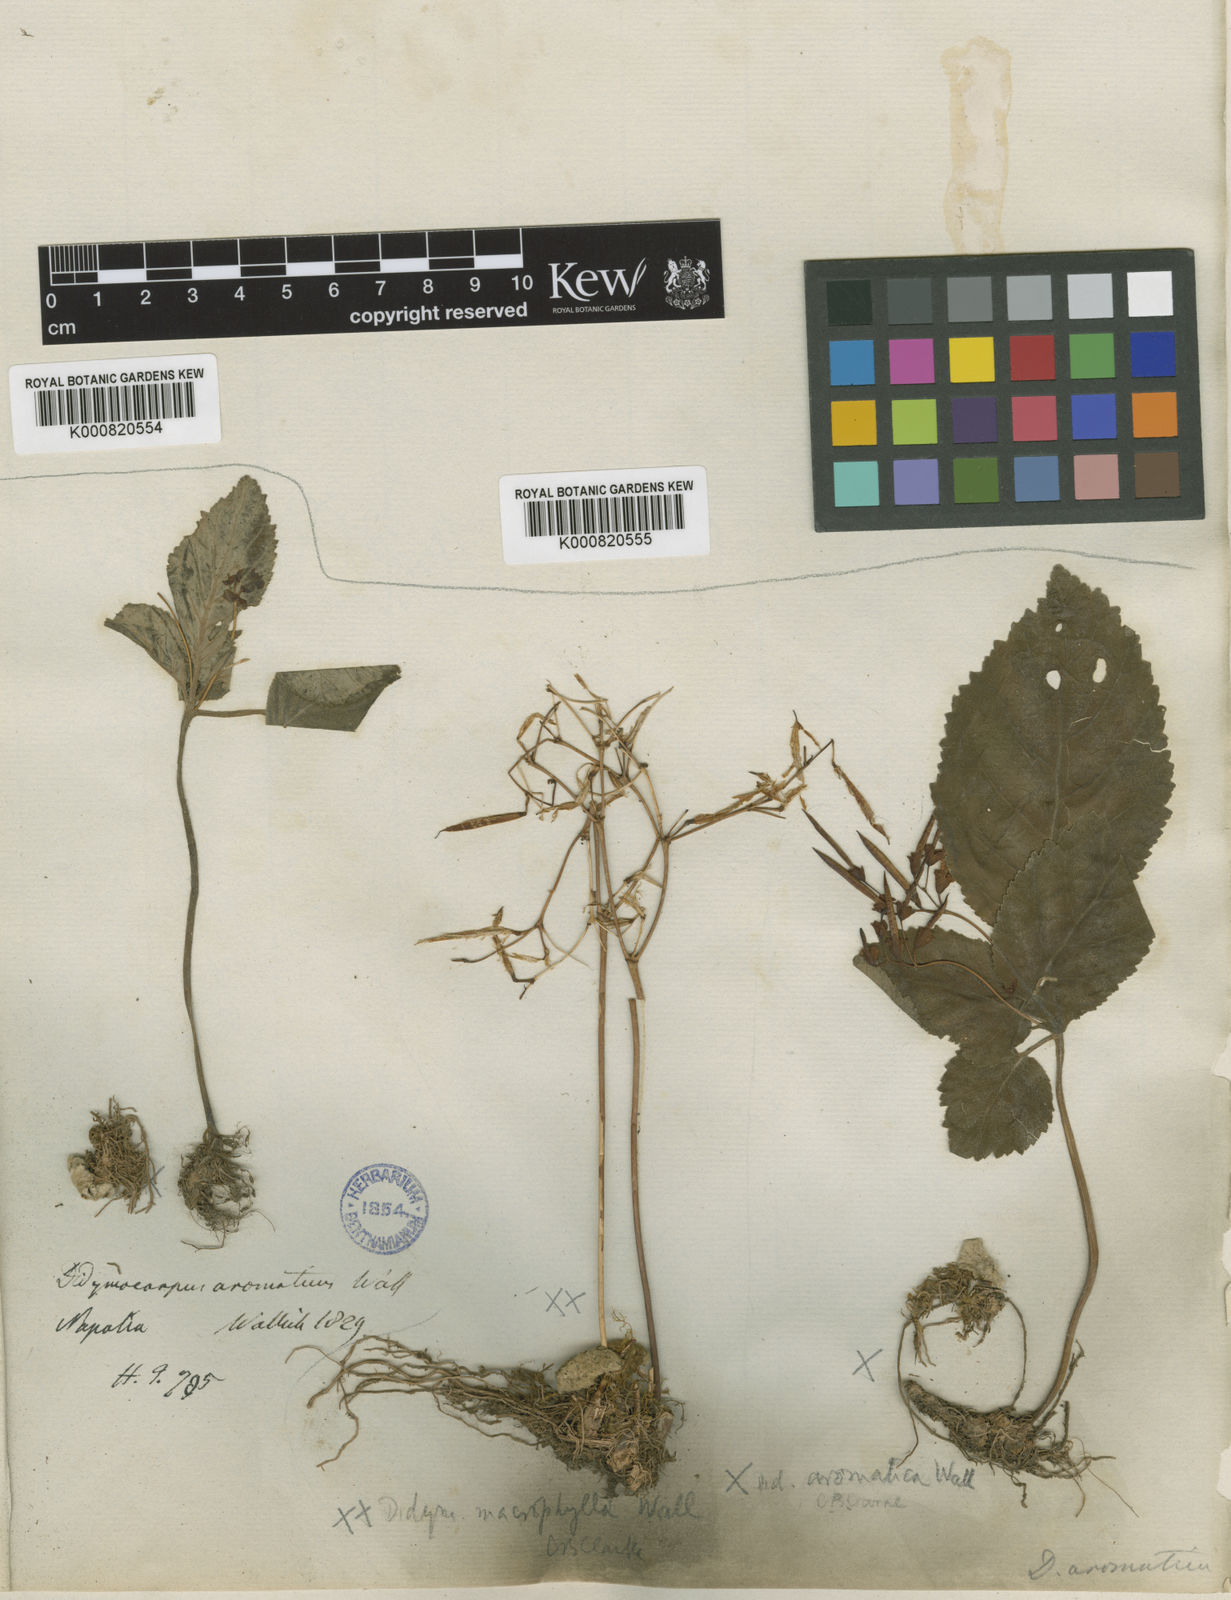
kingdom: Plantae
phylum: Tracheophyta
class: Magnoliopsida
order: Lamiales
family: Gesneriaceae
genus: Didymocarpus
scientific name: Didymocarpus aromaticus
